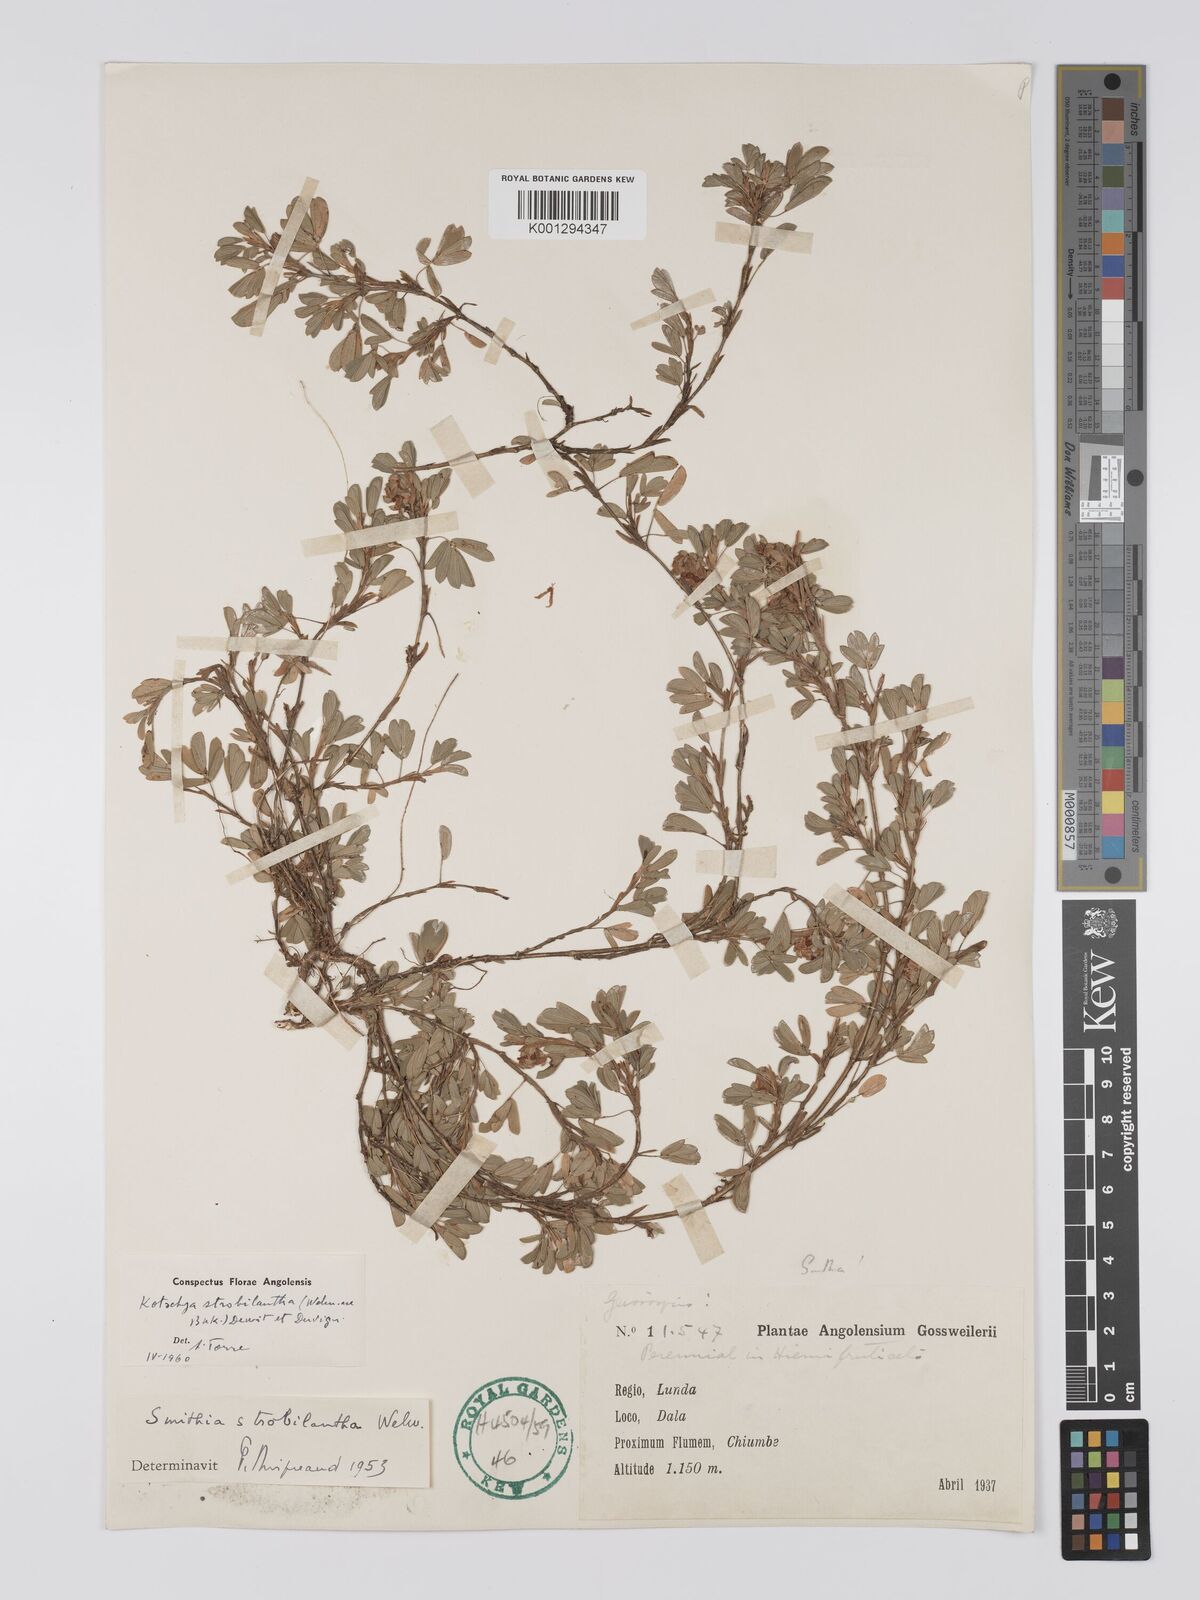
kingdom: Plantae
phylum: Tracheophyta
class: Magnoliopsida
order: Fabales
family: Fabaceae
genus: Kotschya
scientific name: Kotschya strobilantha
